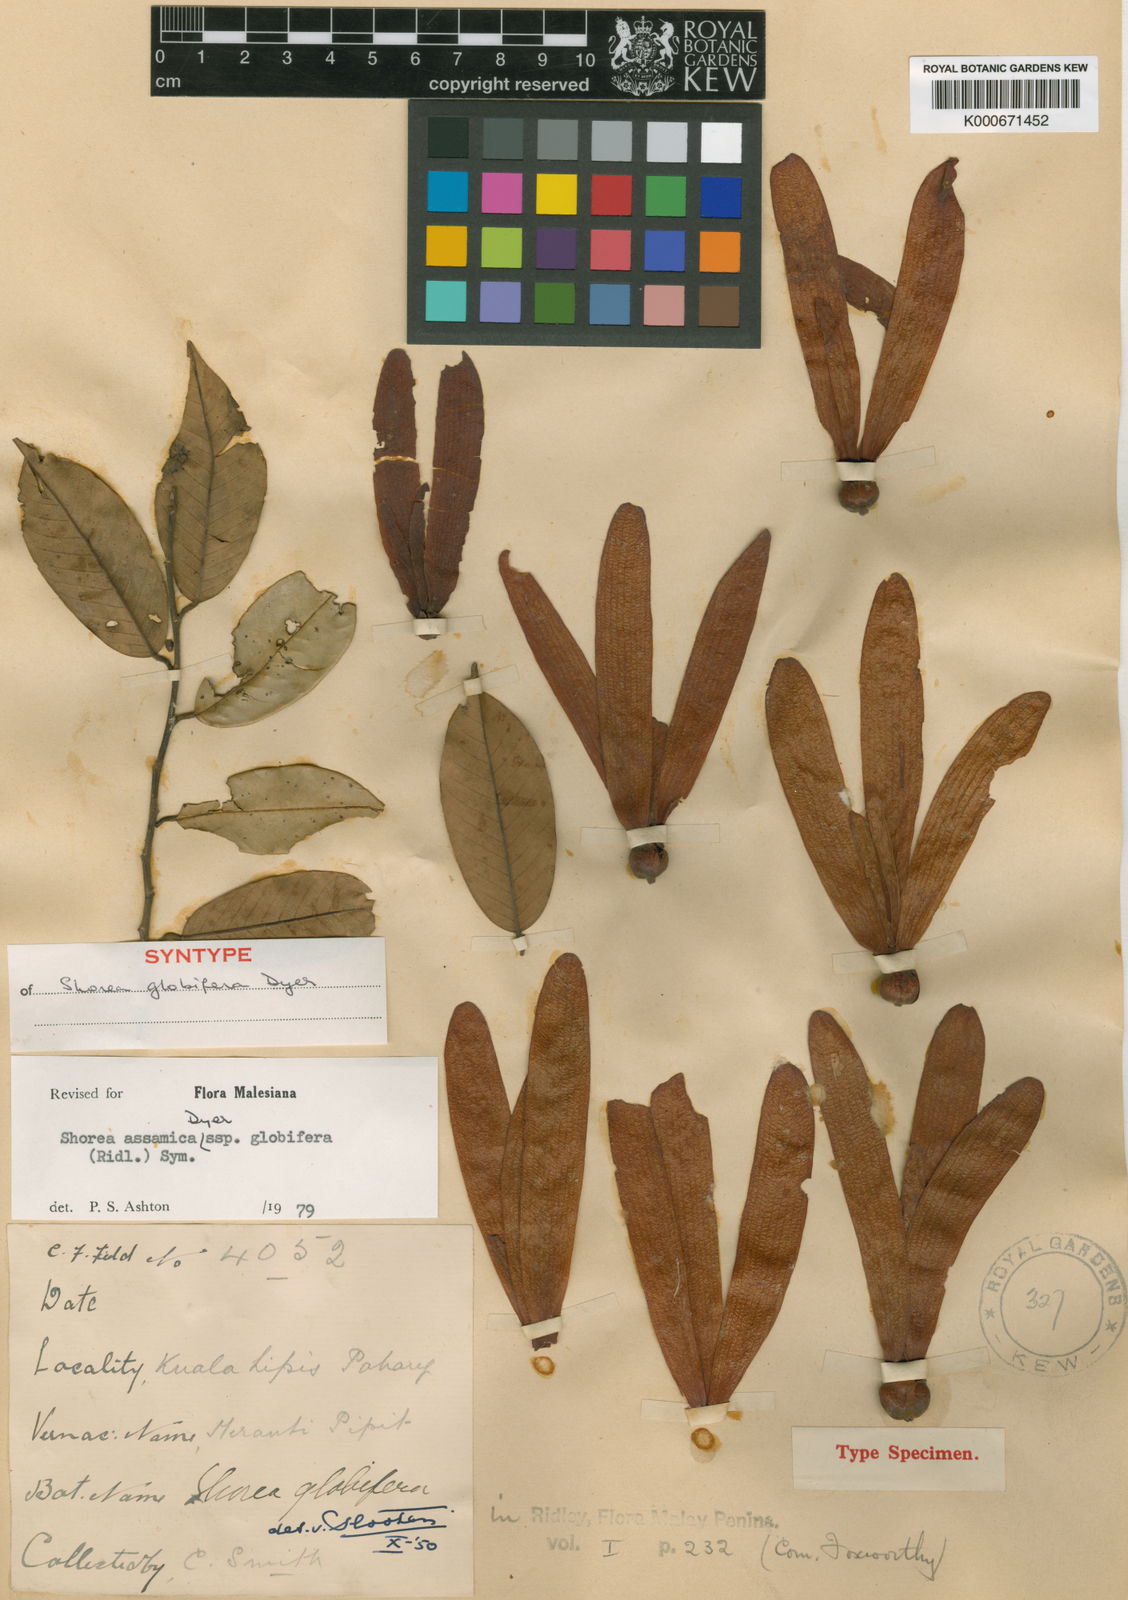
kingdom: Plantae
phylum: Tracheophyta
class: Magnoliopsida
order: Malvales
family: Dipterocarpaceae
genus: Anthoshorea
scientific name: Anthoshorea assamica
